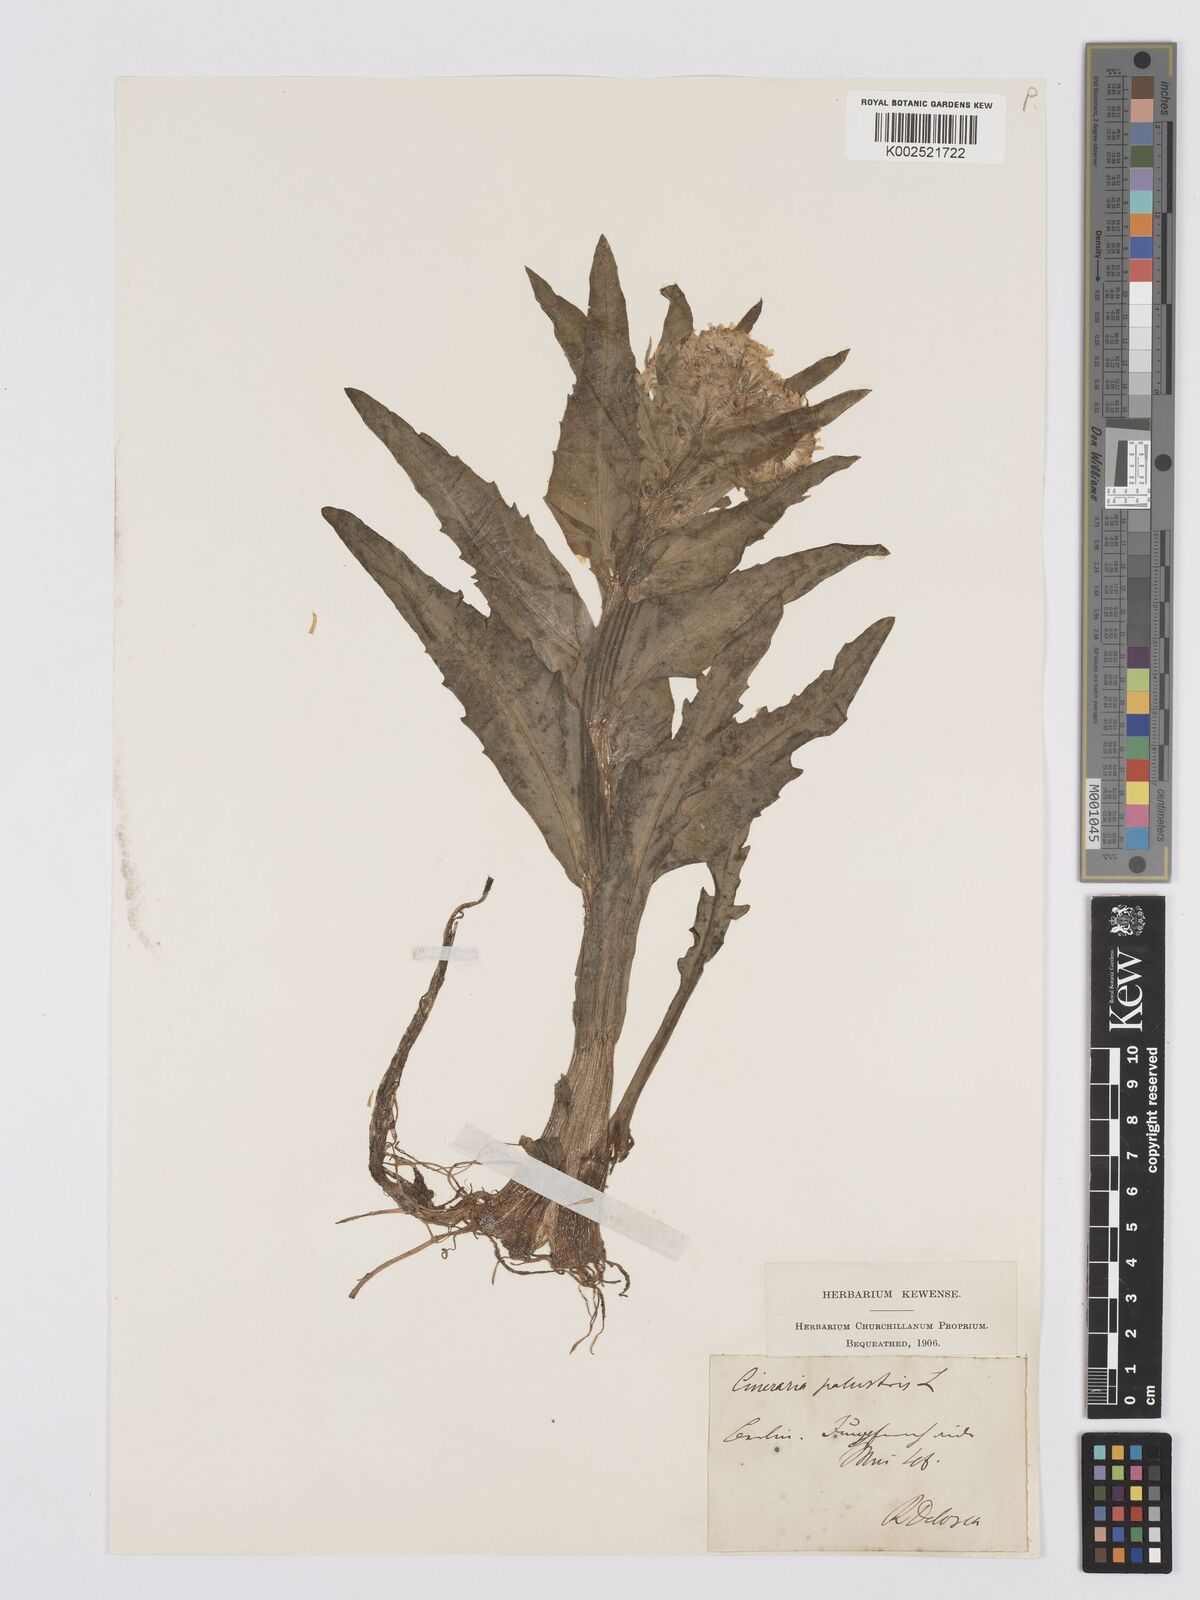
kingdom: Plantae
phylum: Tracheophyta
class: Magnoliopsida
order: Asterales
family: Asteraceae
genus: Tephroseris
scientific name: Tephroseris palustris
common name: Marsh fleawort
